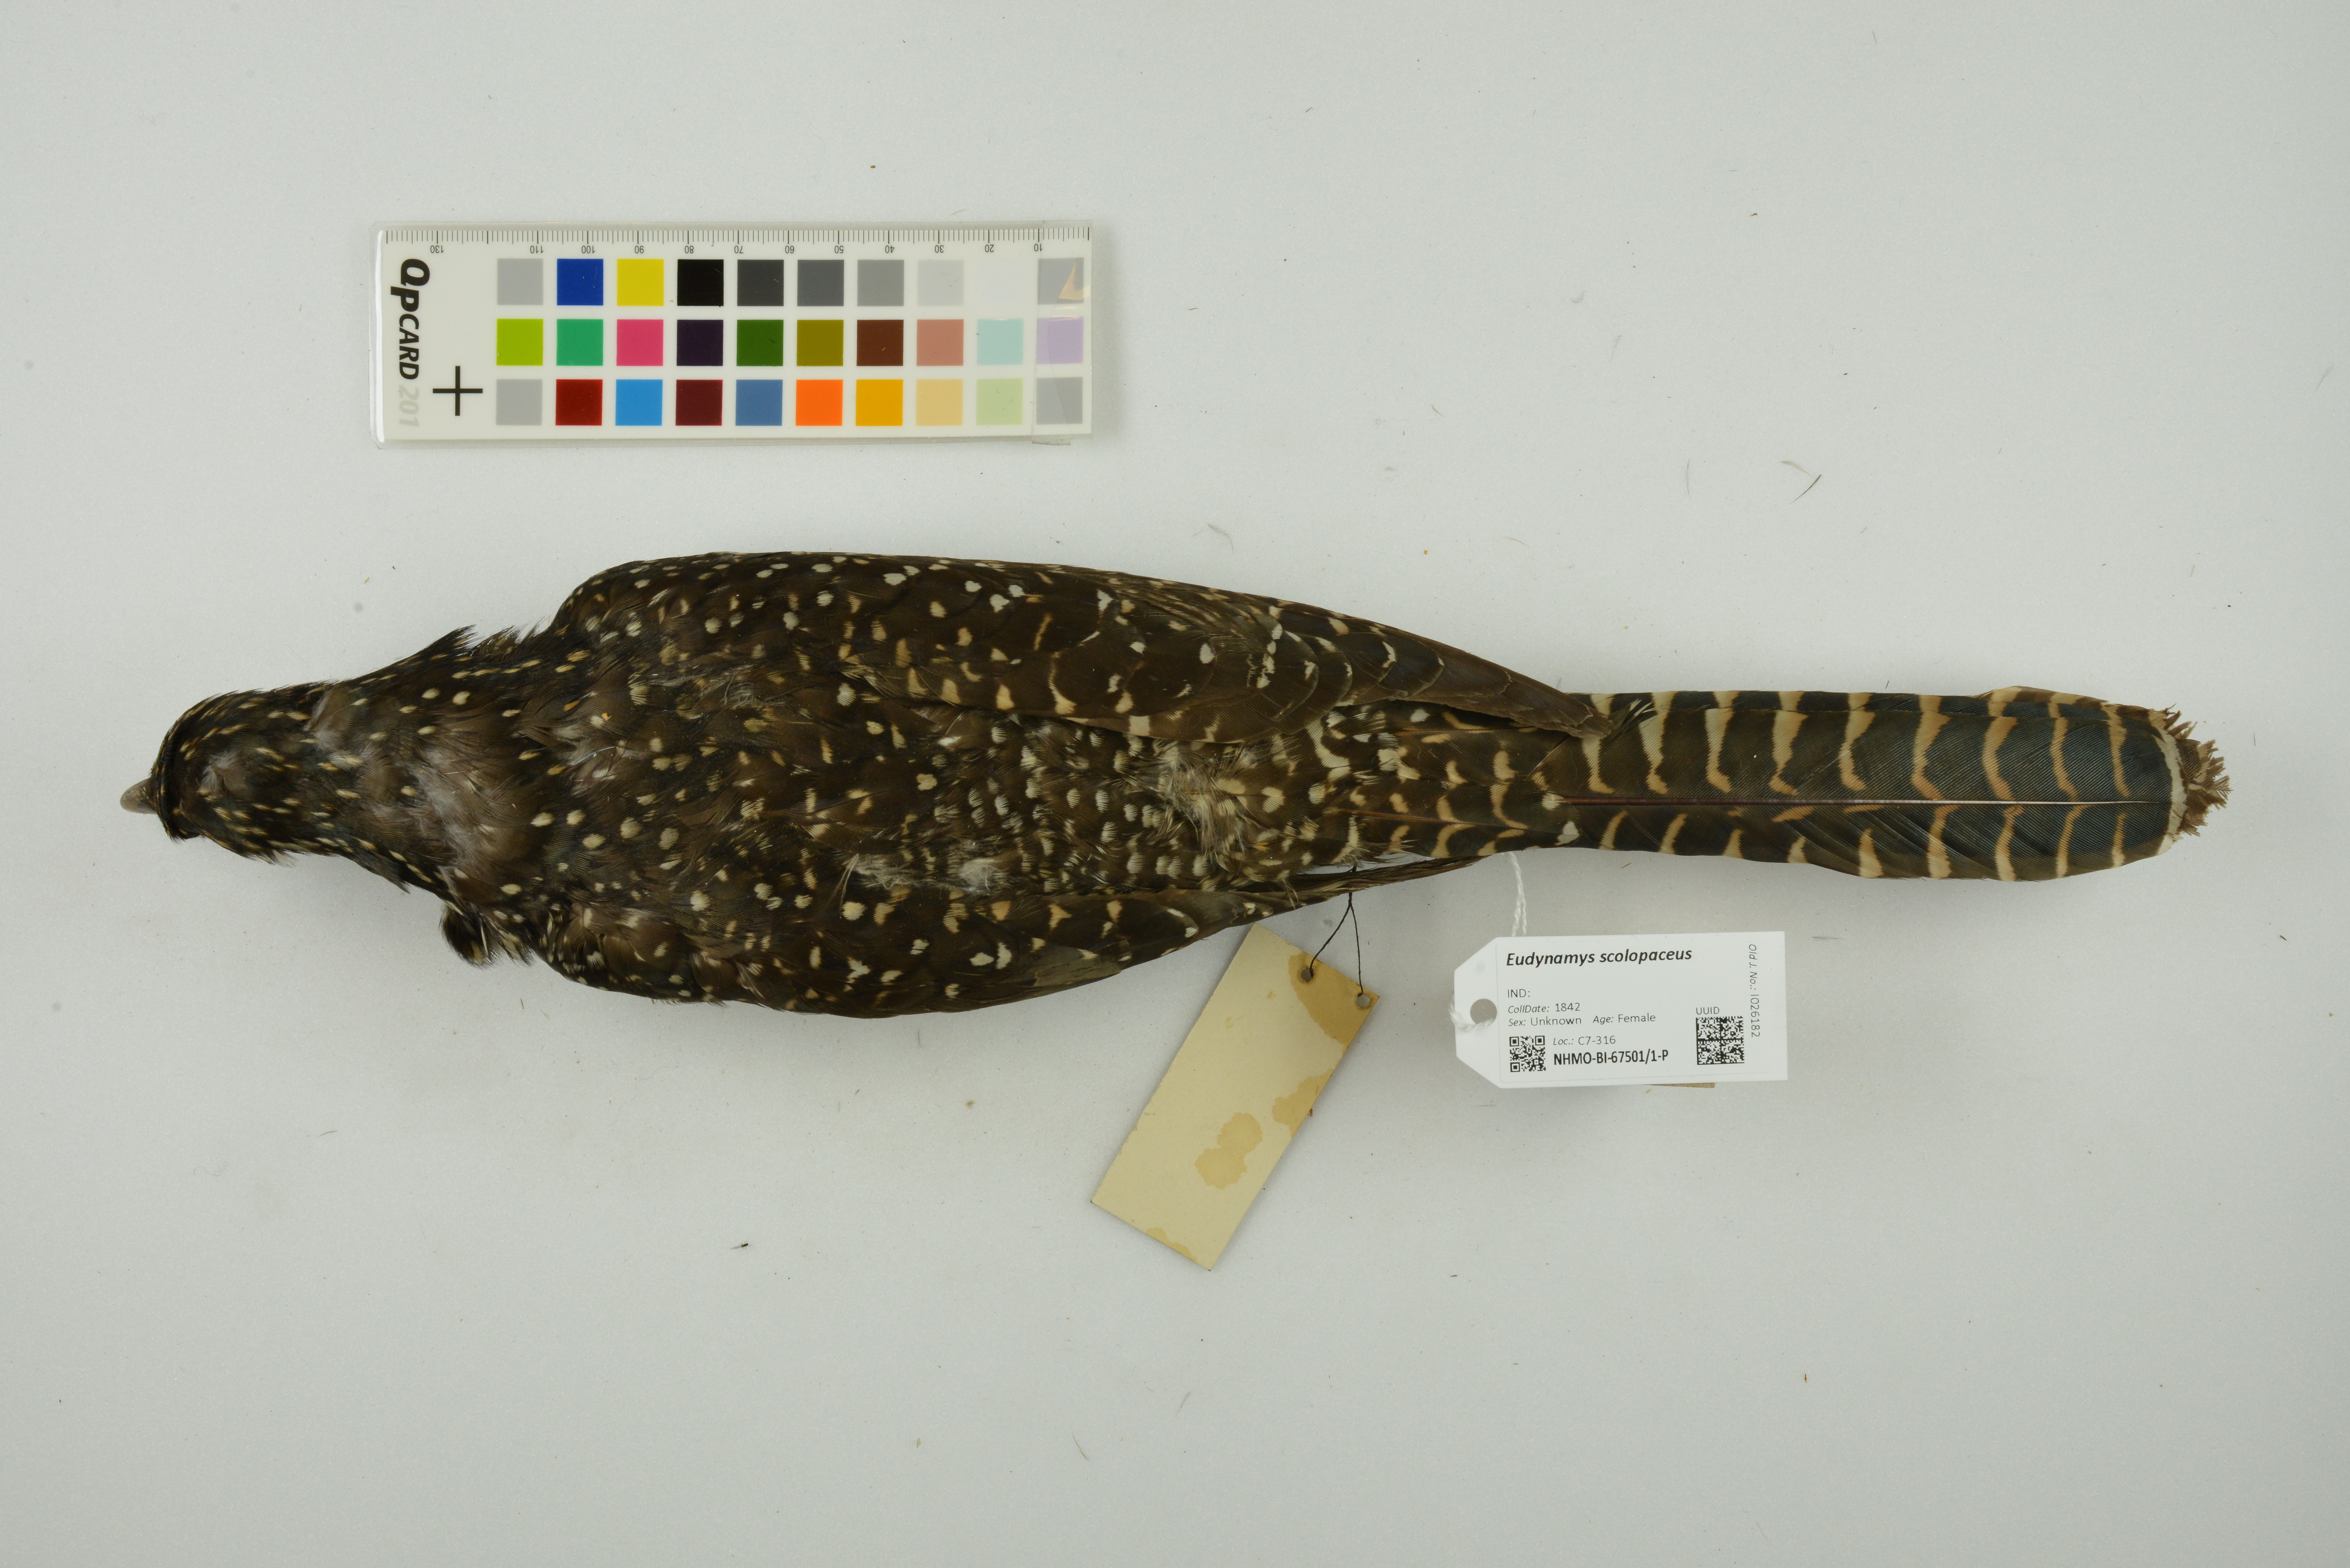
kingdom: Animalia
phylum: Chordata
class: Aves
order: Cuculiformes
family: Cuculidae
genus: Eudynamys
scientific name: Eudynamys scolopaceus
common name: Asian koel
